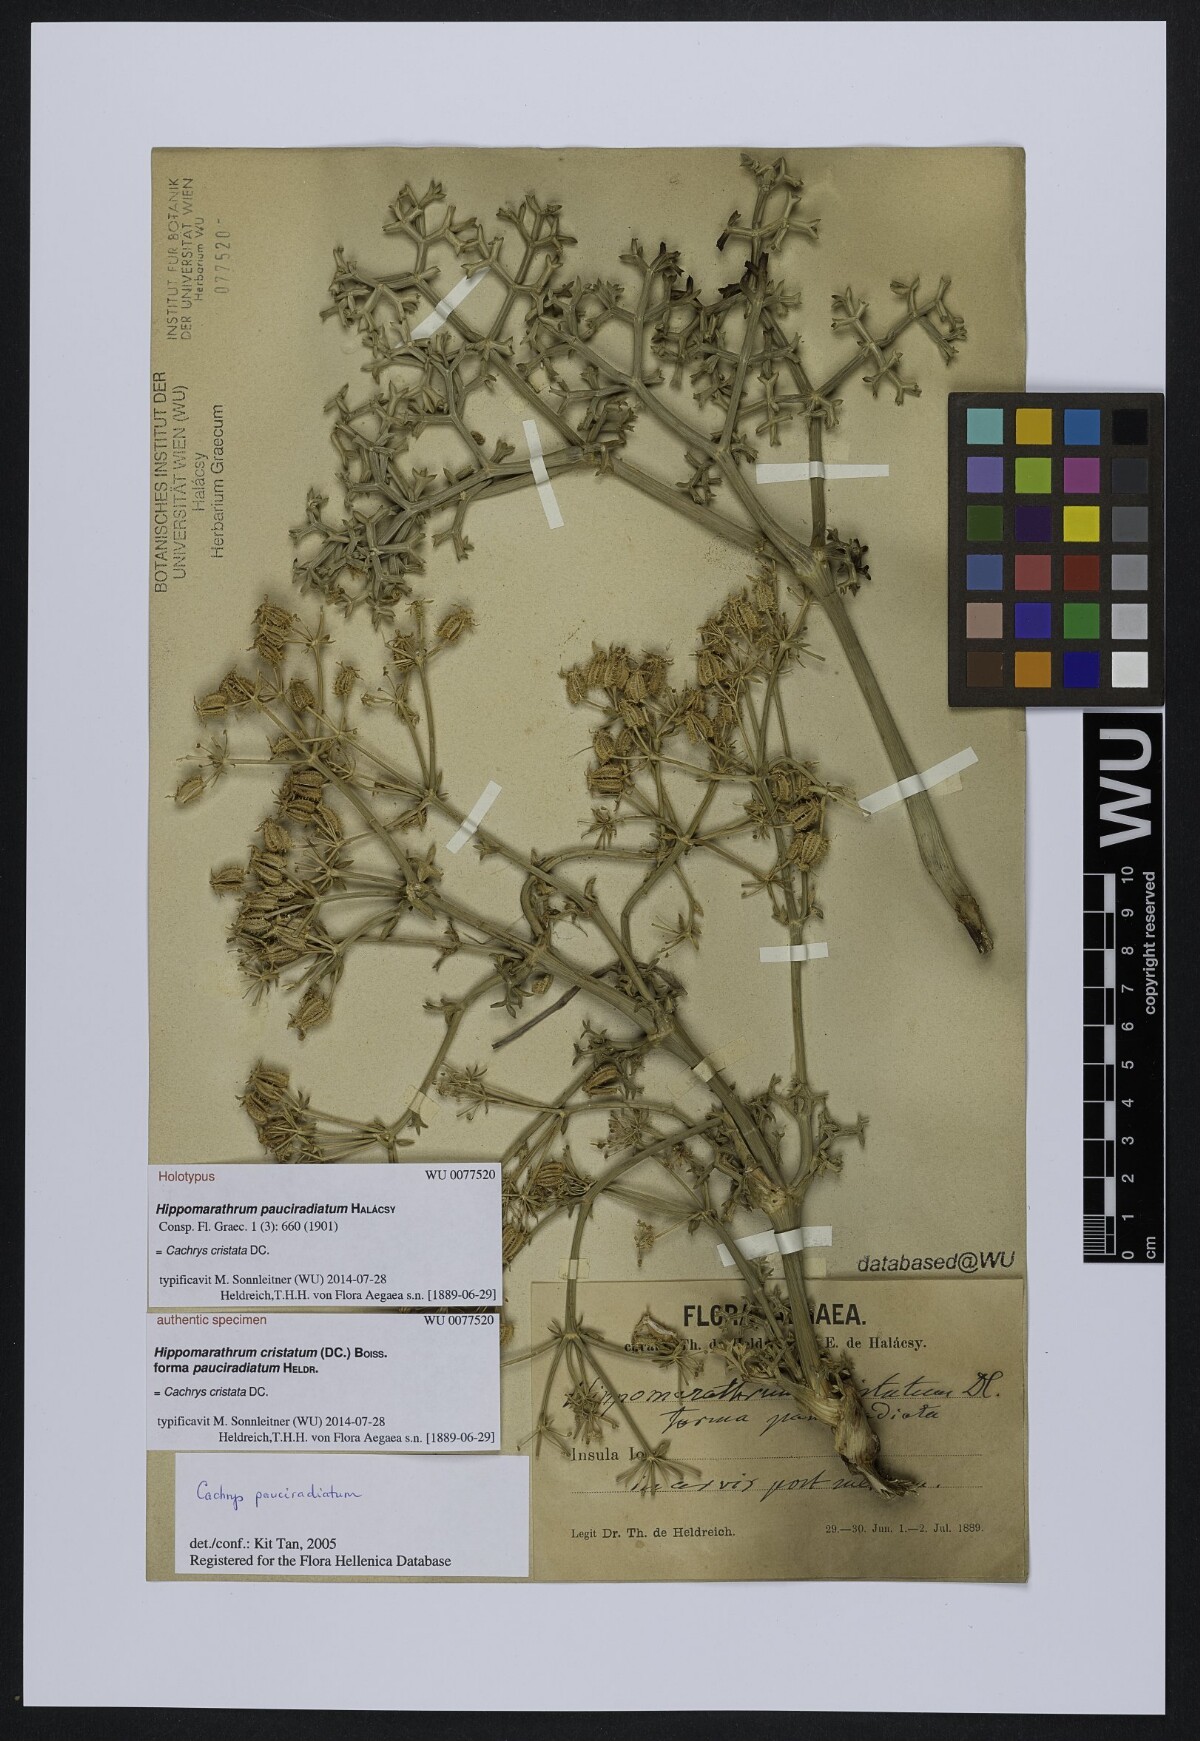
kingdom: Plantae
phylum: Tracheophyta
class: Magnoliopsida
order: Apiales
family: Apiaceae
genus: Cachrys
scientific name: Cachrys cristata
